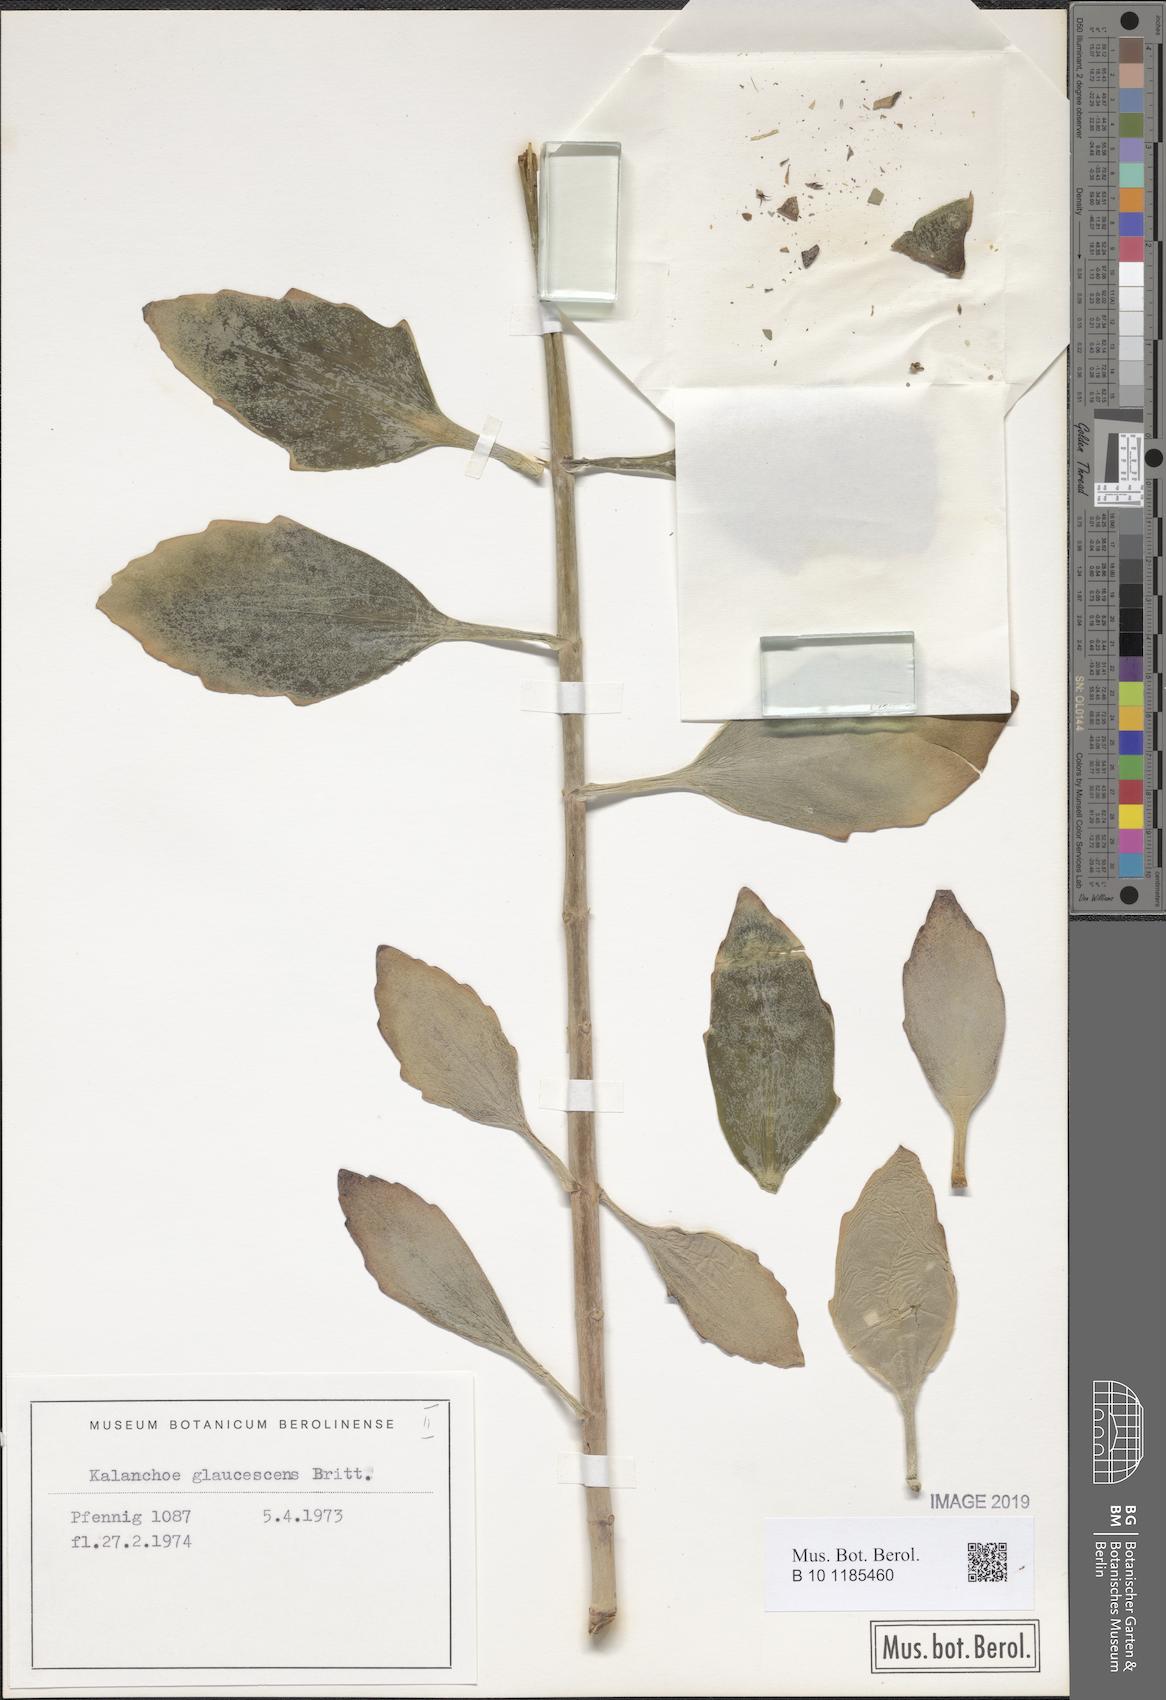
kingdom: Plantae
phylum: Tracheophyta
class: Magnoliopsida
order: Saxifragales
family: Crassulaceae
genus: Kalanchoe
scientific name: Kalanchoe glaucescens
